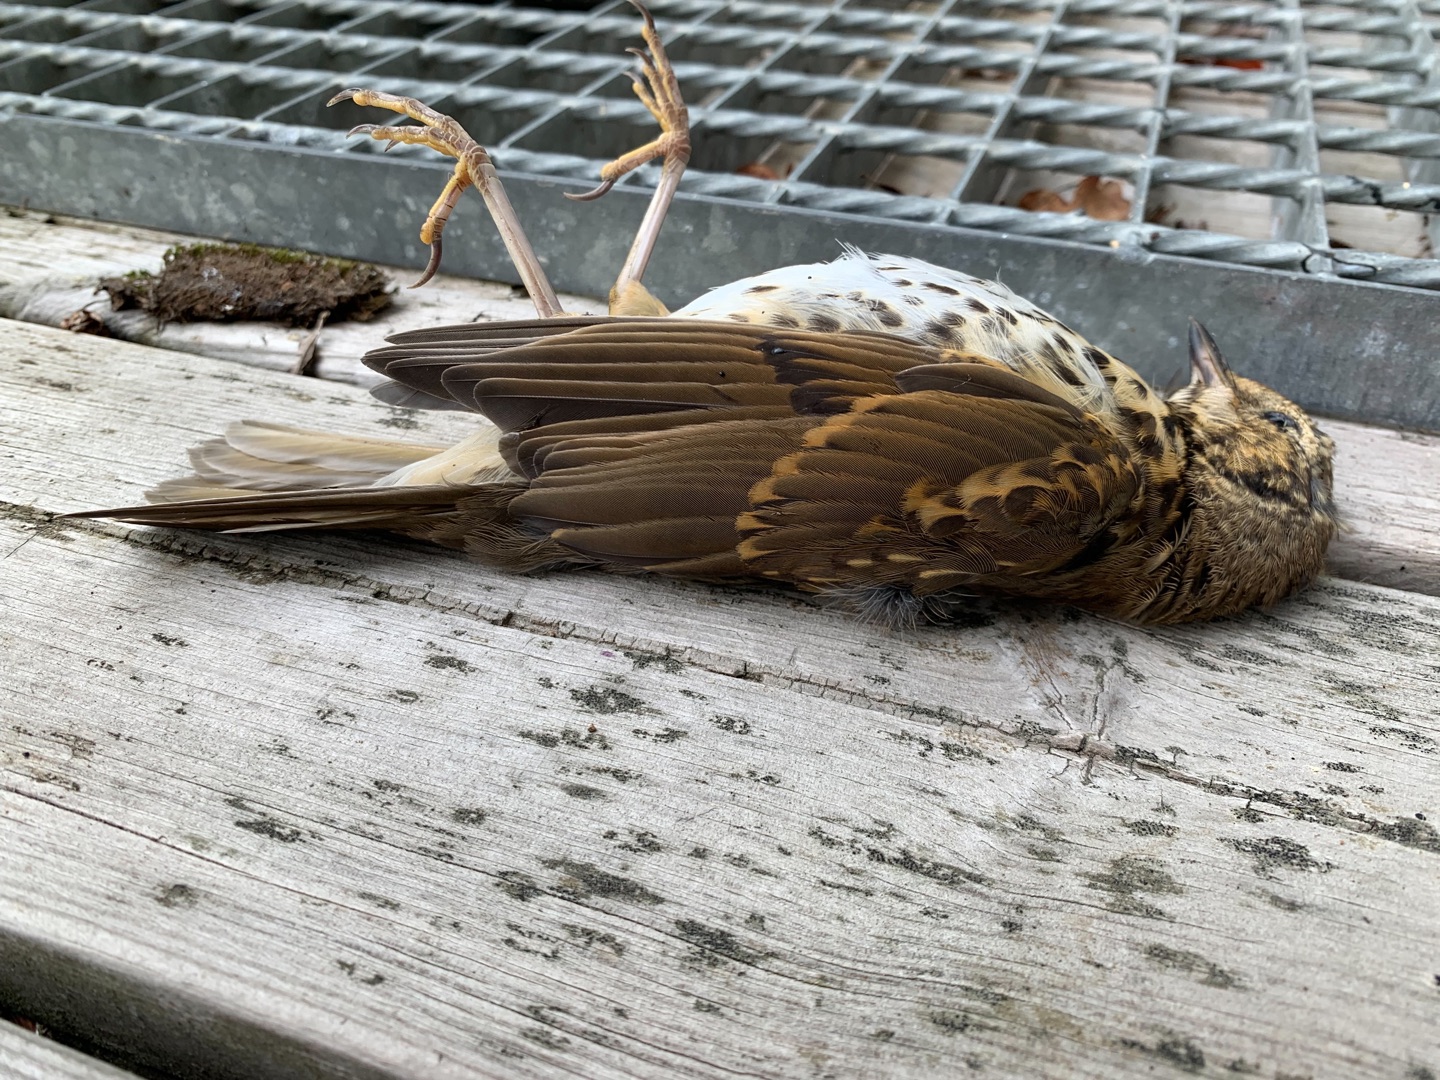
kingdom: Animalia
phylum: Chordata
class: Aves
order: Passeriformes
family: Turdidae
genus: Turdus
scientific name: Turdus philomelos
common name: Sangdrossel
